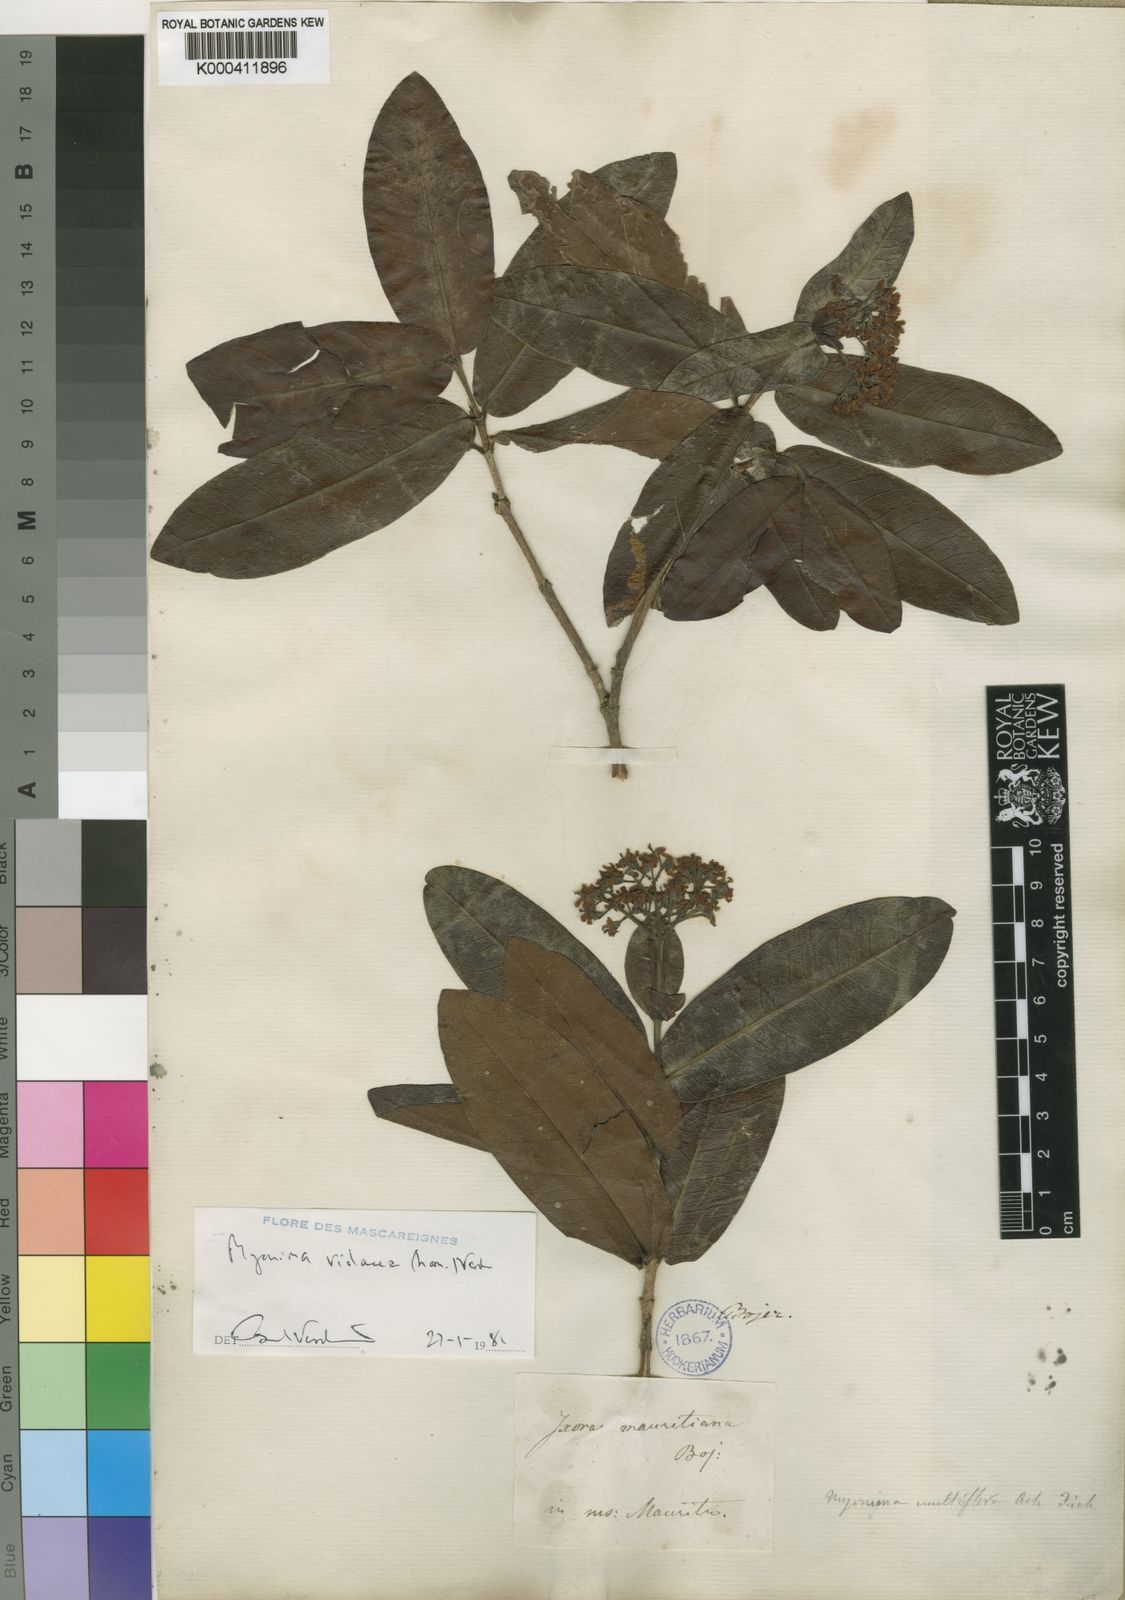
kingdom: Plantae
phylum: Tracheophyta
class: Magnoliopsida
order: Gentianales
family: Rubiaceae
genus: Ixora
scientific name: Ixora parviflora
